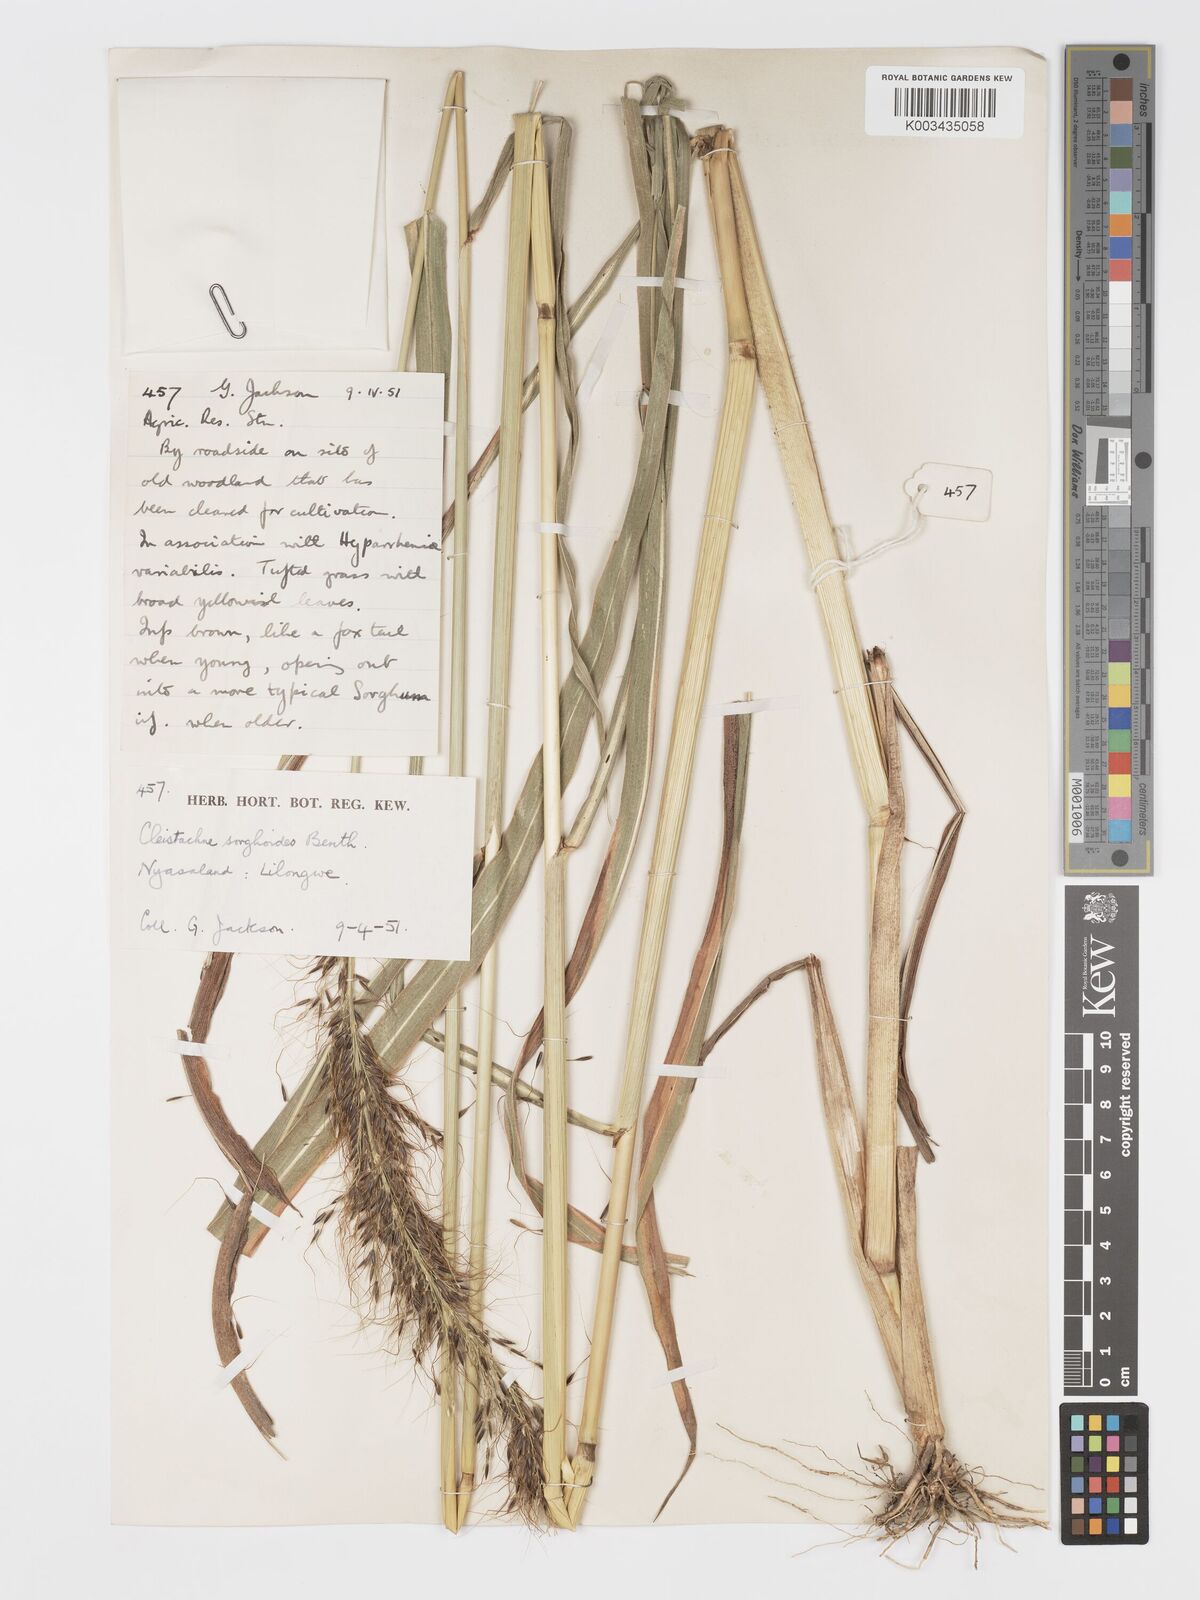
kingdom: Plantae
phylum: Tracheophyta
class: Liliopsida
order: Poales
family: Poaceae
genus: Cleistachne
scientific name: Cleistachne sorghoides
